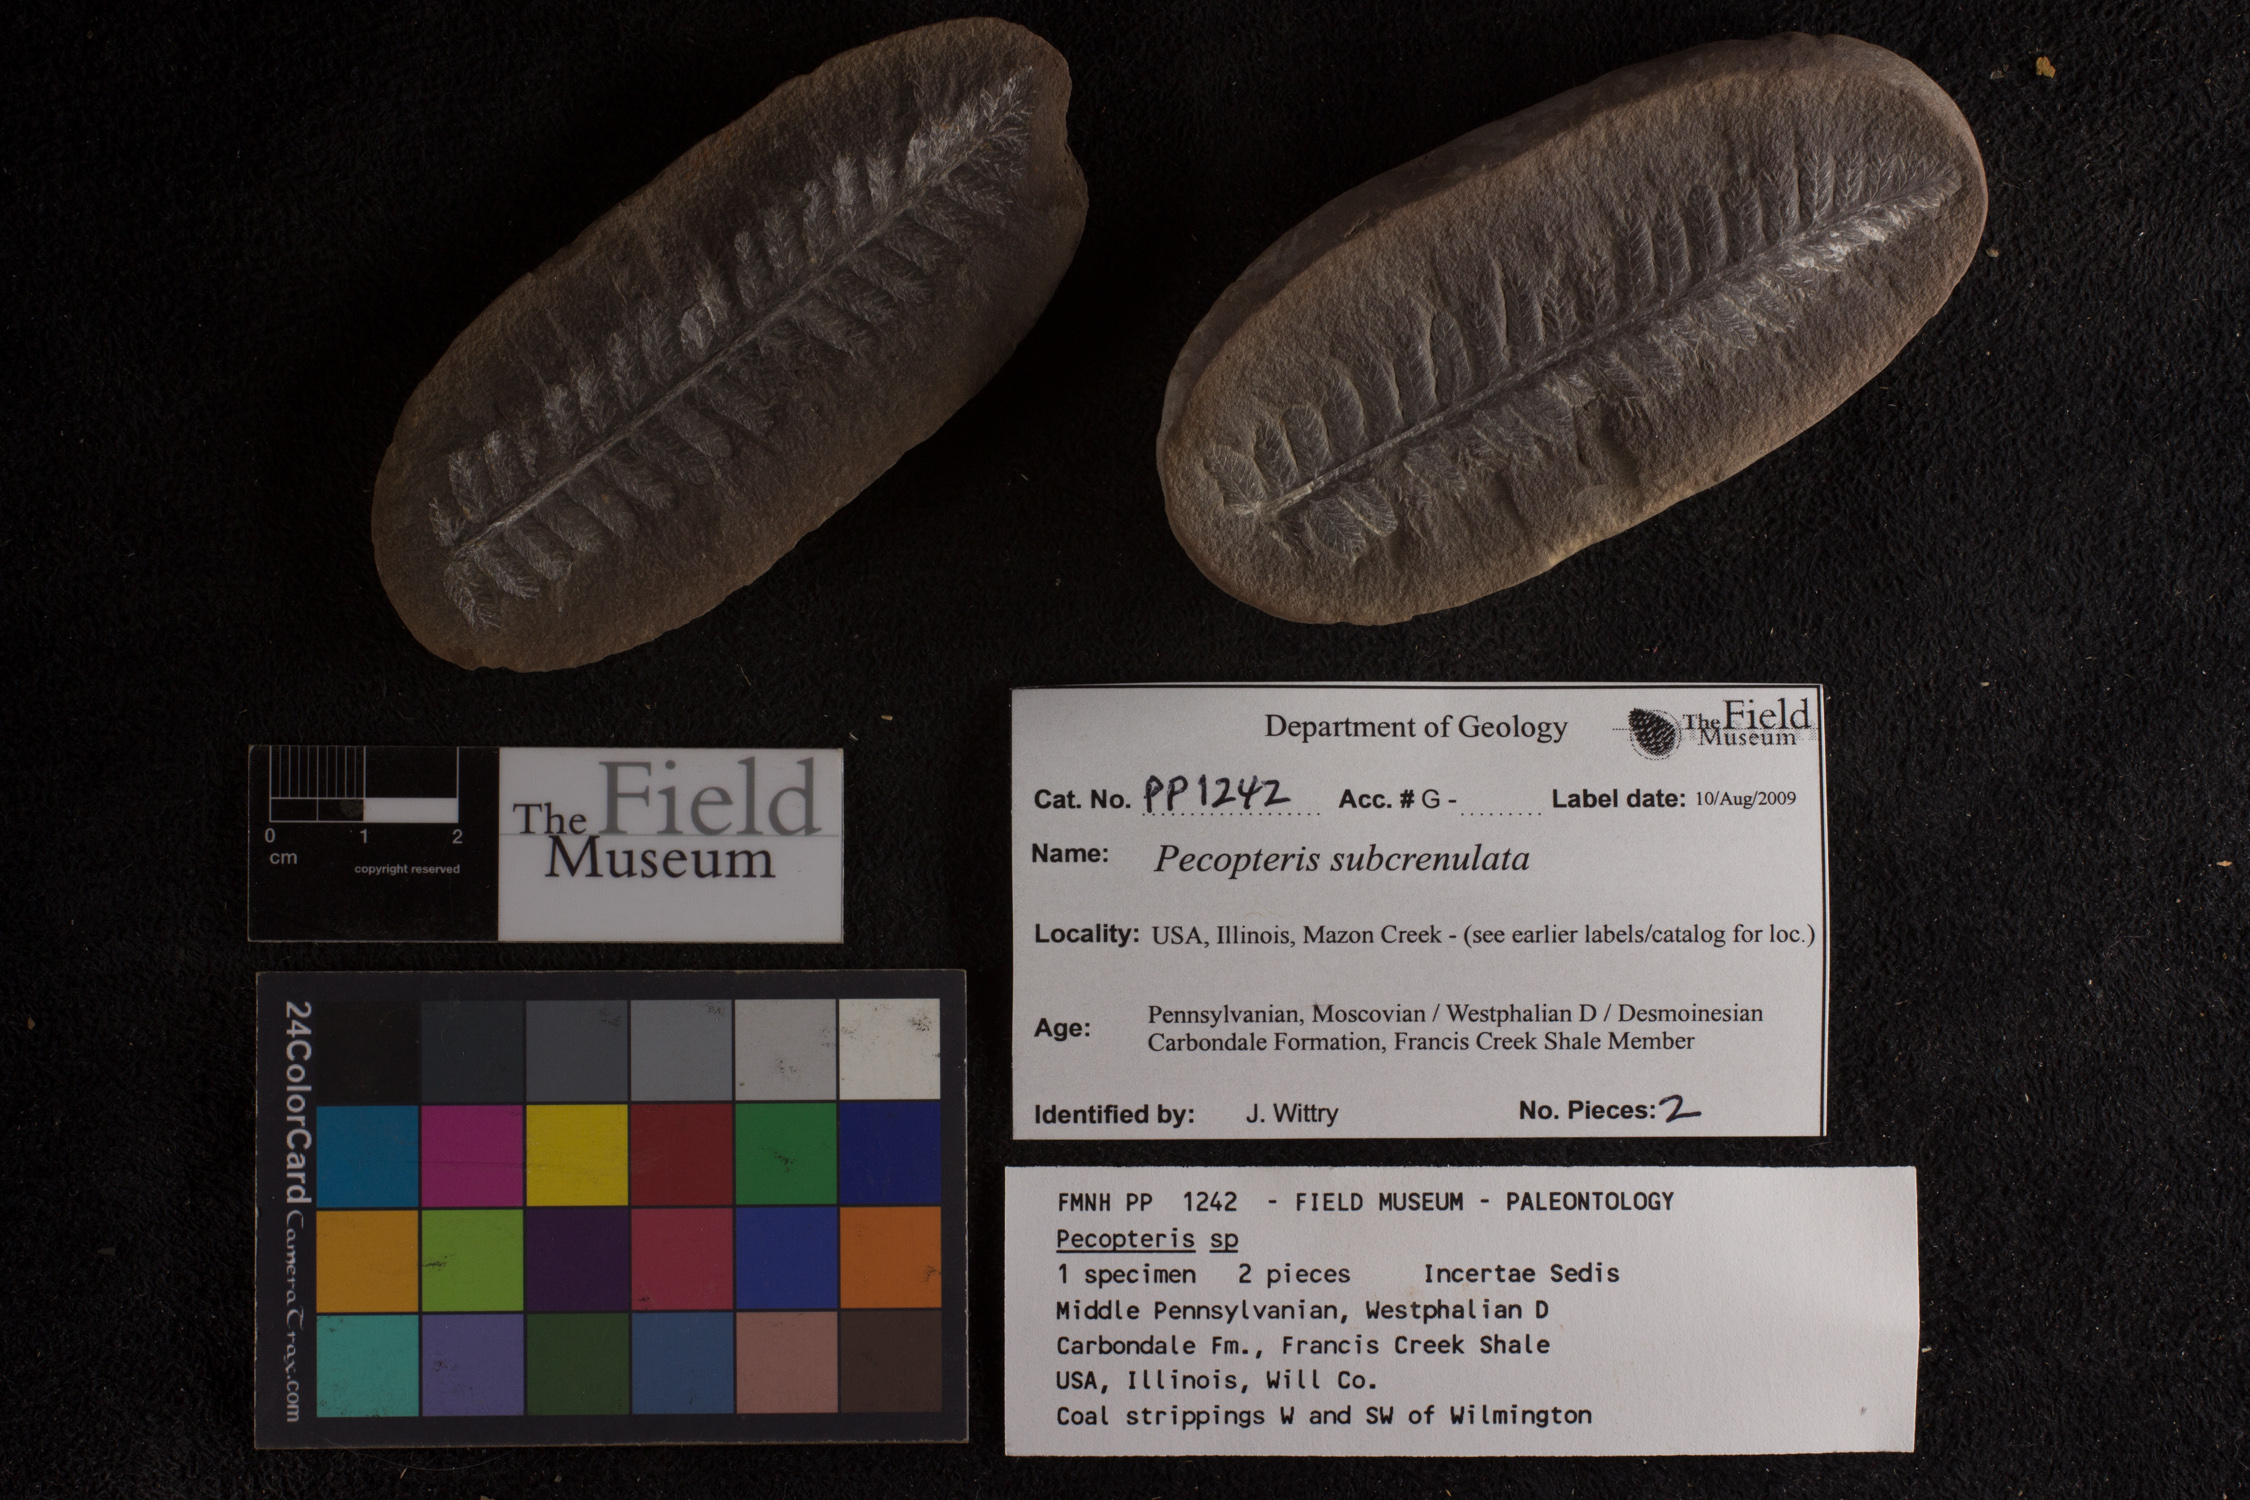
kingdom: Plantae
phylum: Tracheophyta
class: Polypodiopsida
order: Marattiales
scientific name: Marattiales
